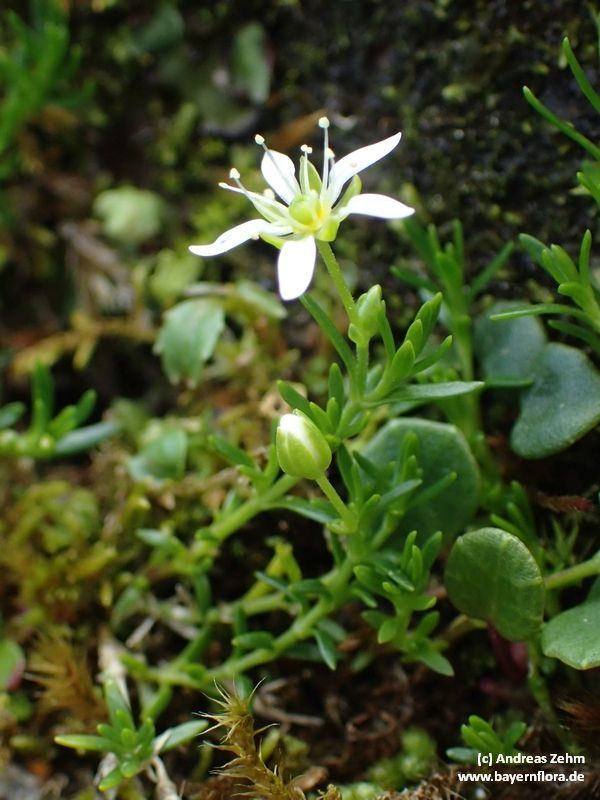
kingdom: Plantae
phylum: Tracheophyta
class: Magnoliopsida
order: Caryophyllales
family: Caryophyllaceae
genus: Moehringia
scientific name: Moehringia ciliata
